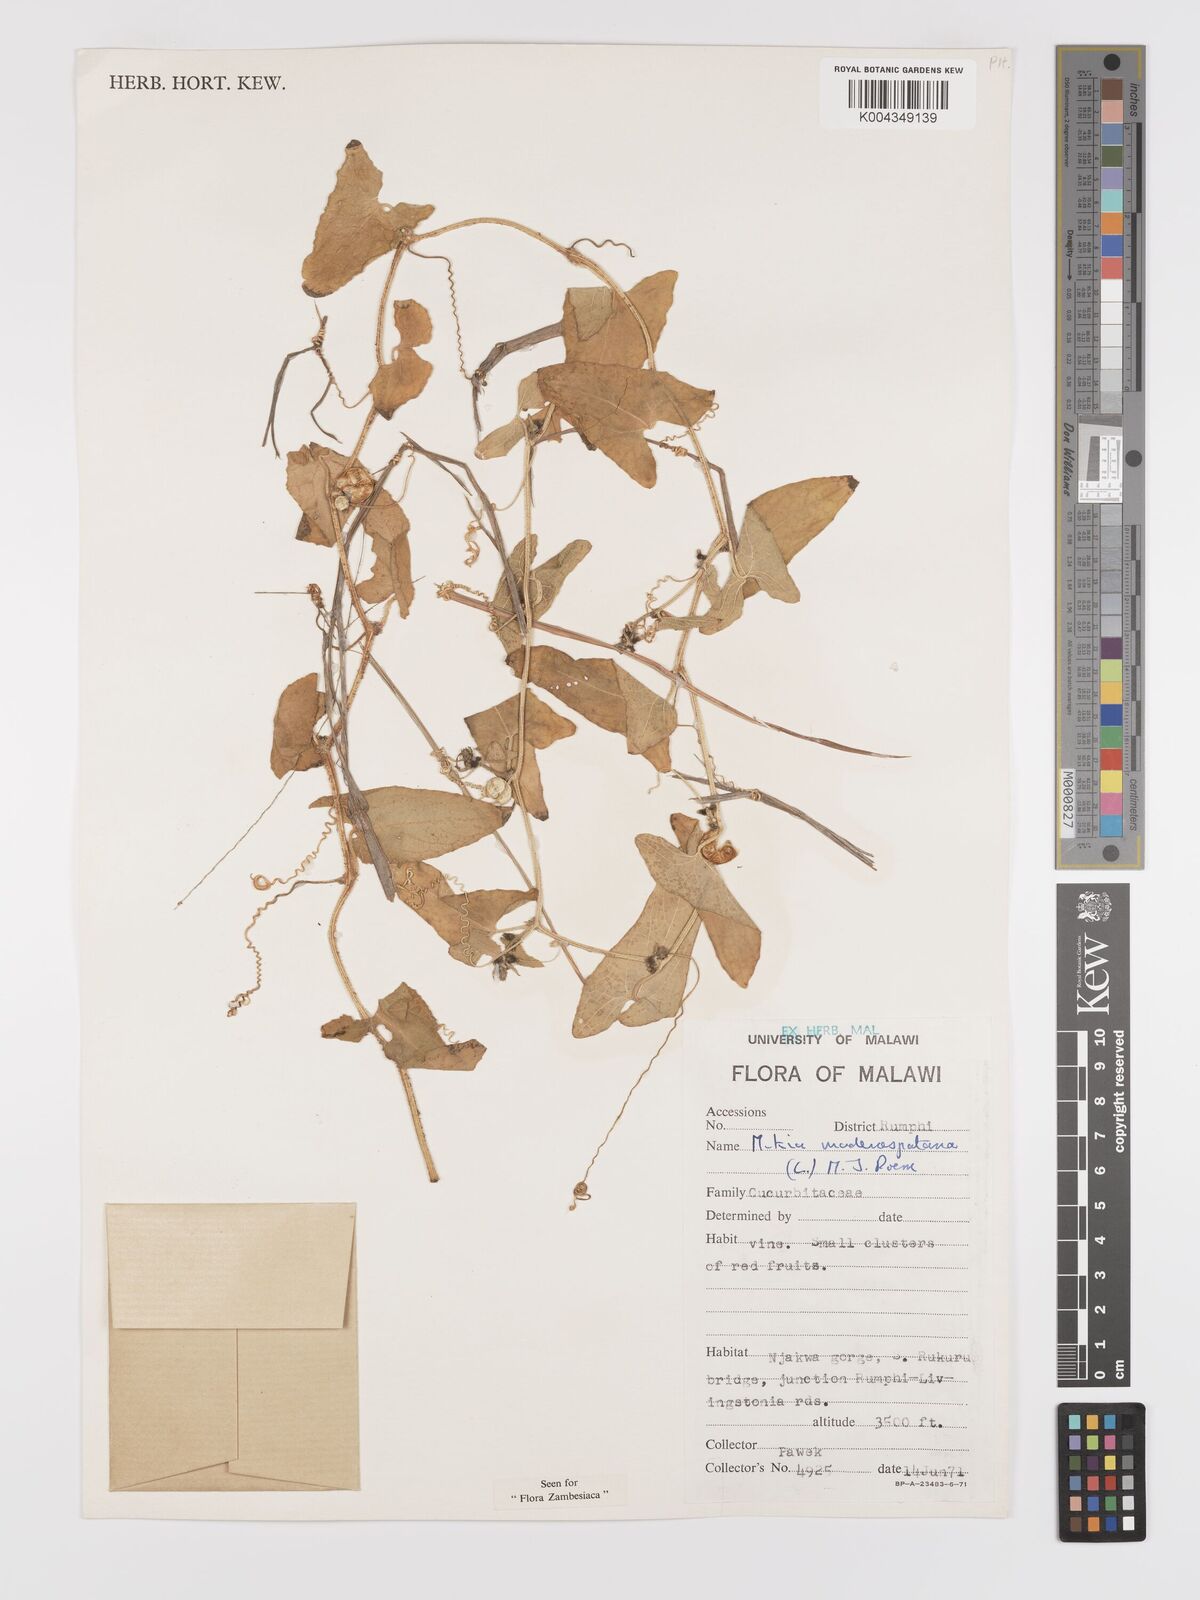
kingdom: Plantae
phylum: Tracheophyta
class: Magnoliopsida
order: Cucurbitales
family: Cucurbitaceae
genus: Cucumis
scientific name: Cucumis maderaspatanus
